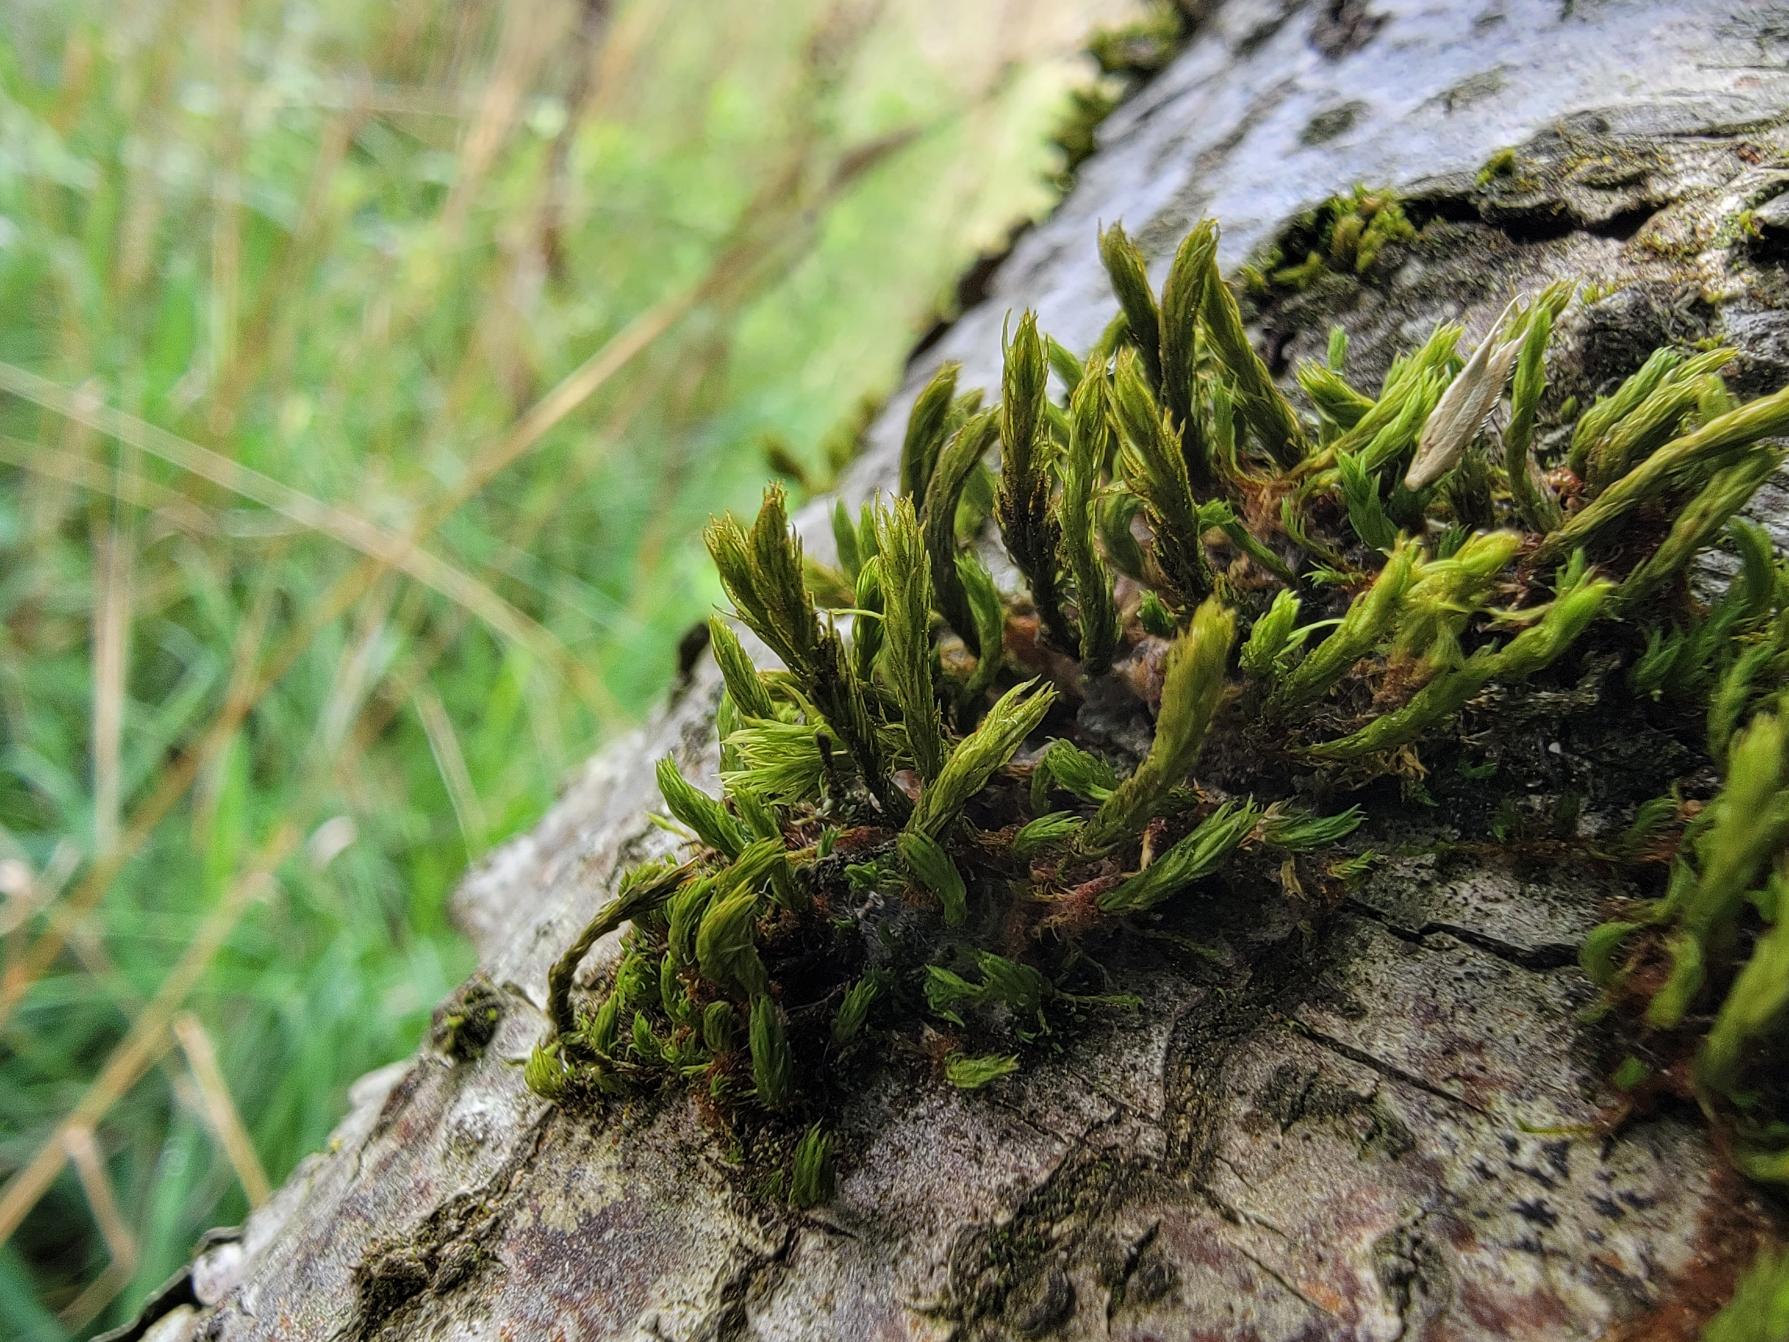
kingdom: Plantae
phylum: Bryophyta
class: Bryopsida
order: Orthotrichales
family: Orthotrichaceae
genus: Pulvigera
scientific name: Pulvigera lyellii
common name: Stor furehætte
